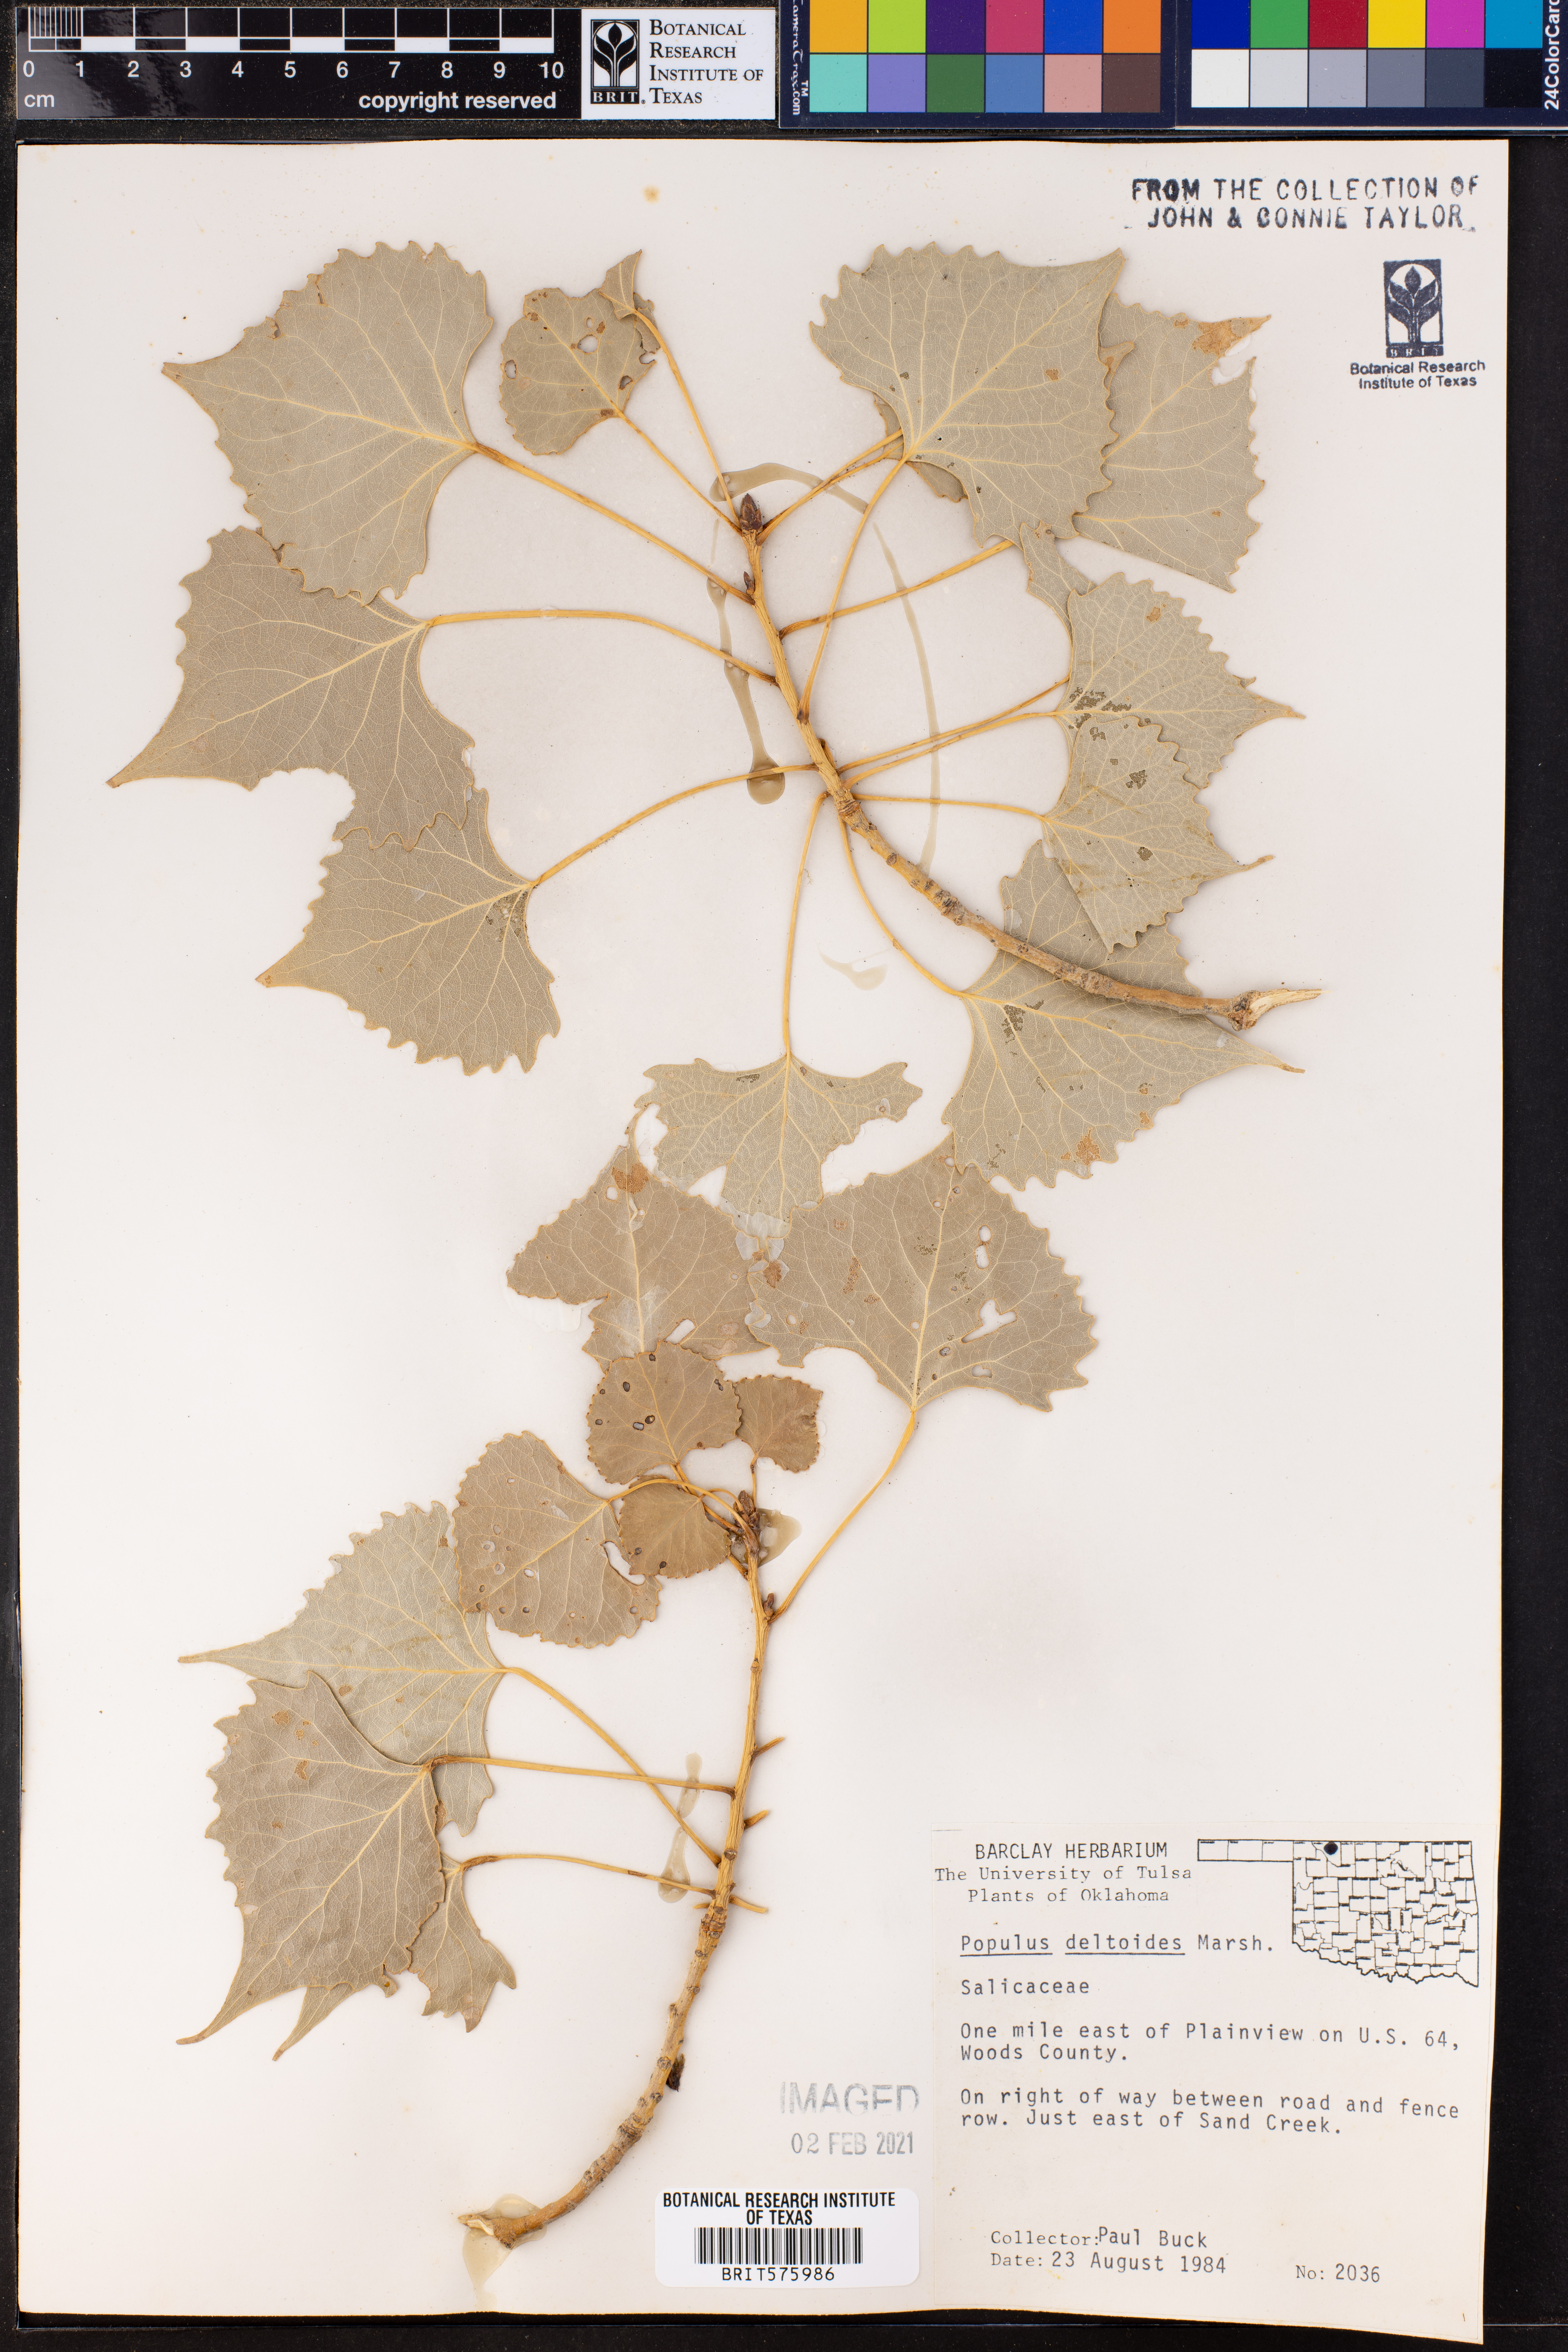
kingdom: Plantae
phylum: Tracheophyta
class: Magnoliopsida
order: Malpighiales
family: Salicaceae
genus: Populus
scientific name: Populus deltoides
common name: Eastern cottonwood
